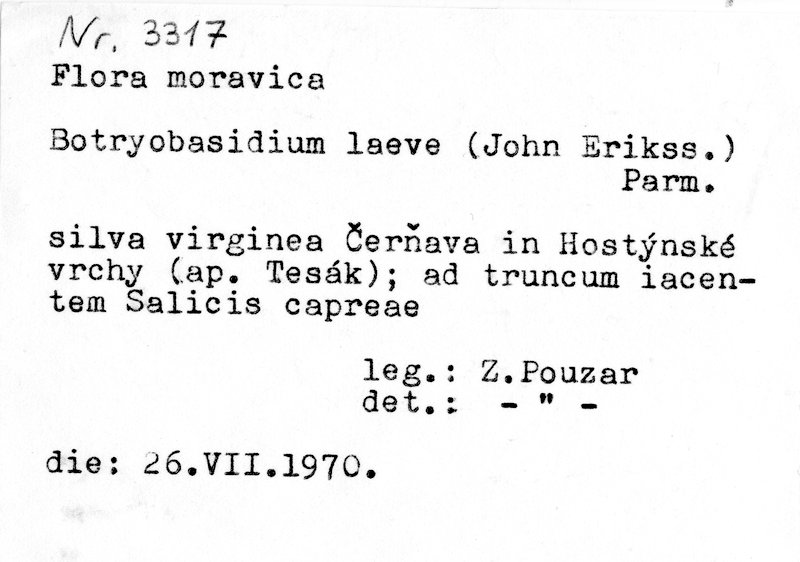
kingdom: Plantae
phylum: Tracheophyta
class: Magnoliopsida
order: Malpighiales
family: Salicaceae
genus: Salix
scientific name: Salix caprea
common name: Goat willow
